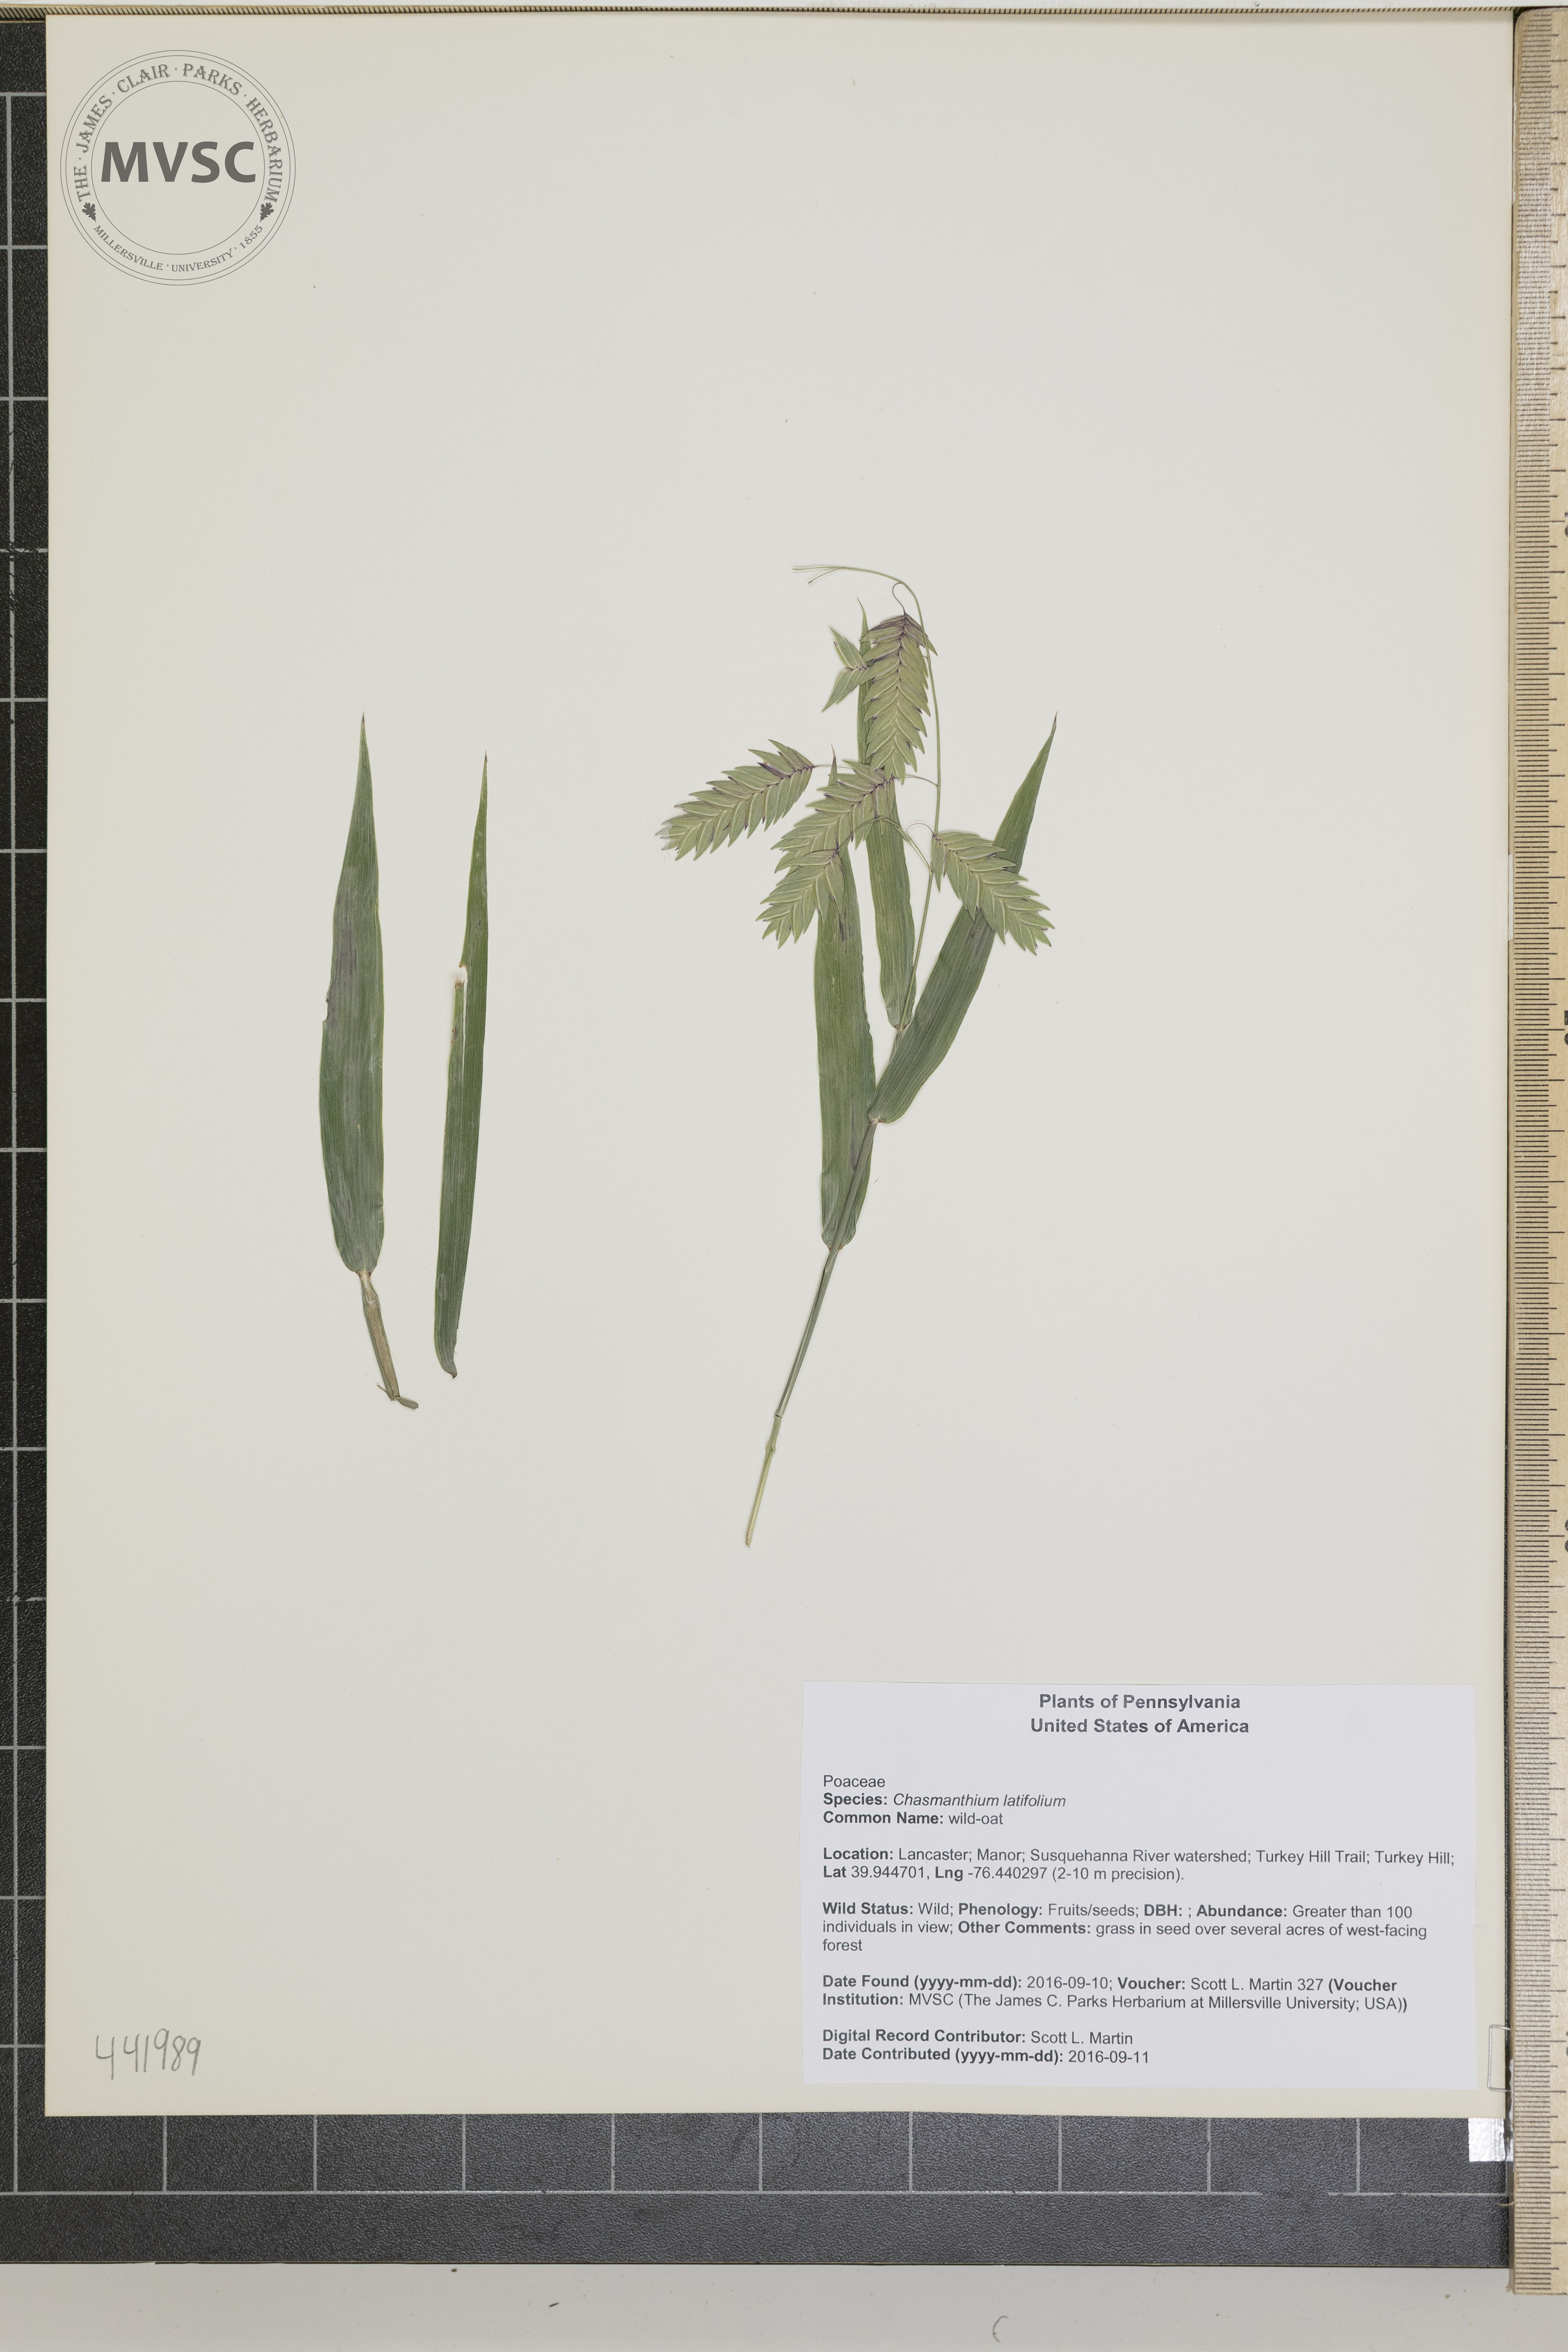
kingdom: Plantae
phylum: Tracheophyta
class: Liliopsida
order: Poales
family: Poaceae
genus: Chasmanthium
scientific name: Chasmanthium latifolium
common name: wild-oat
